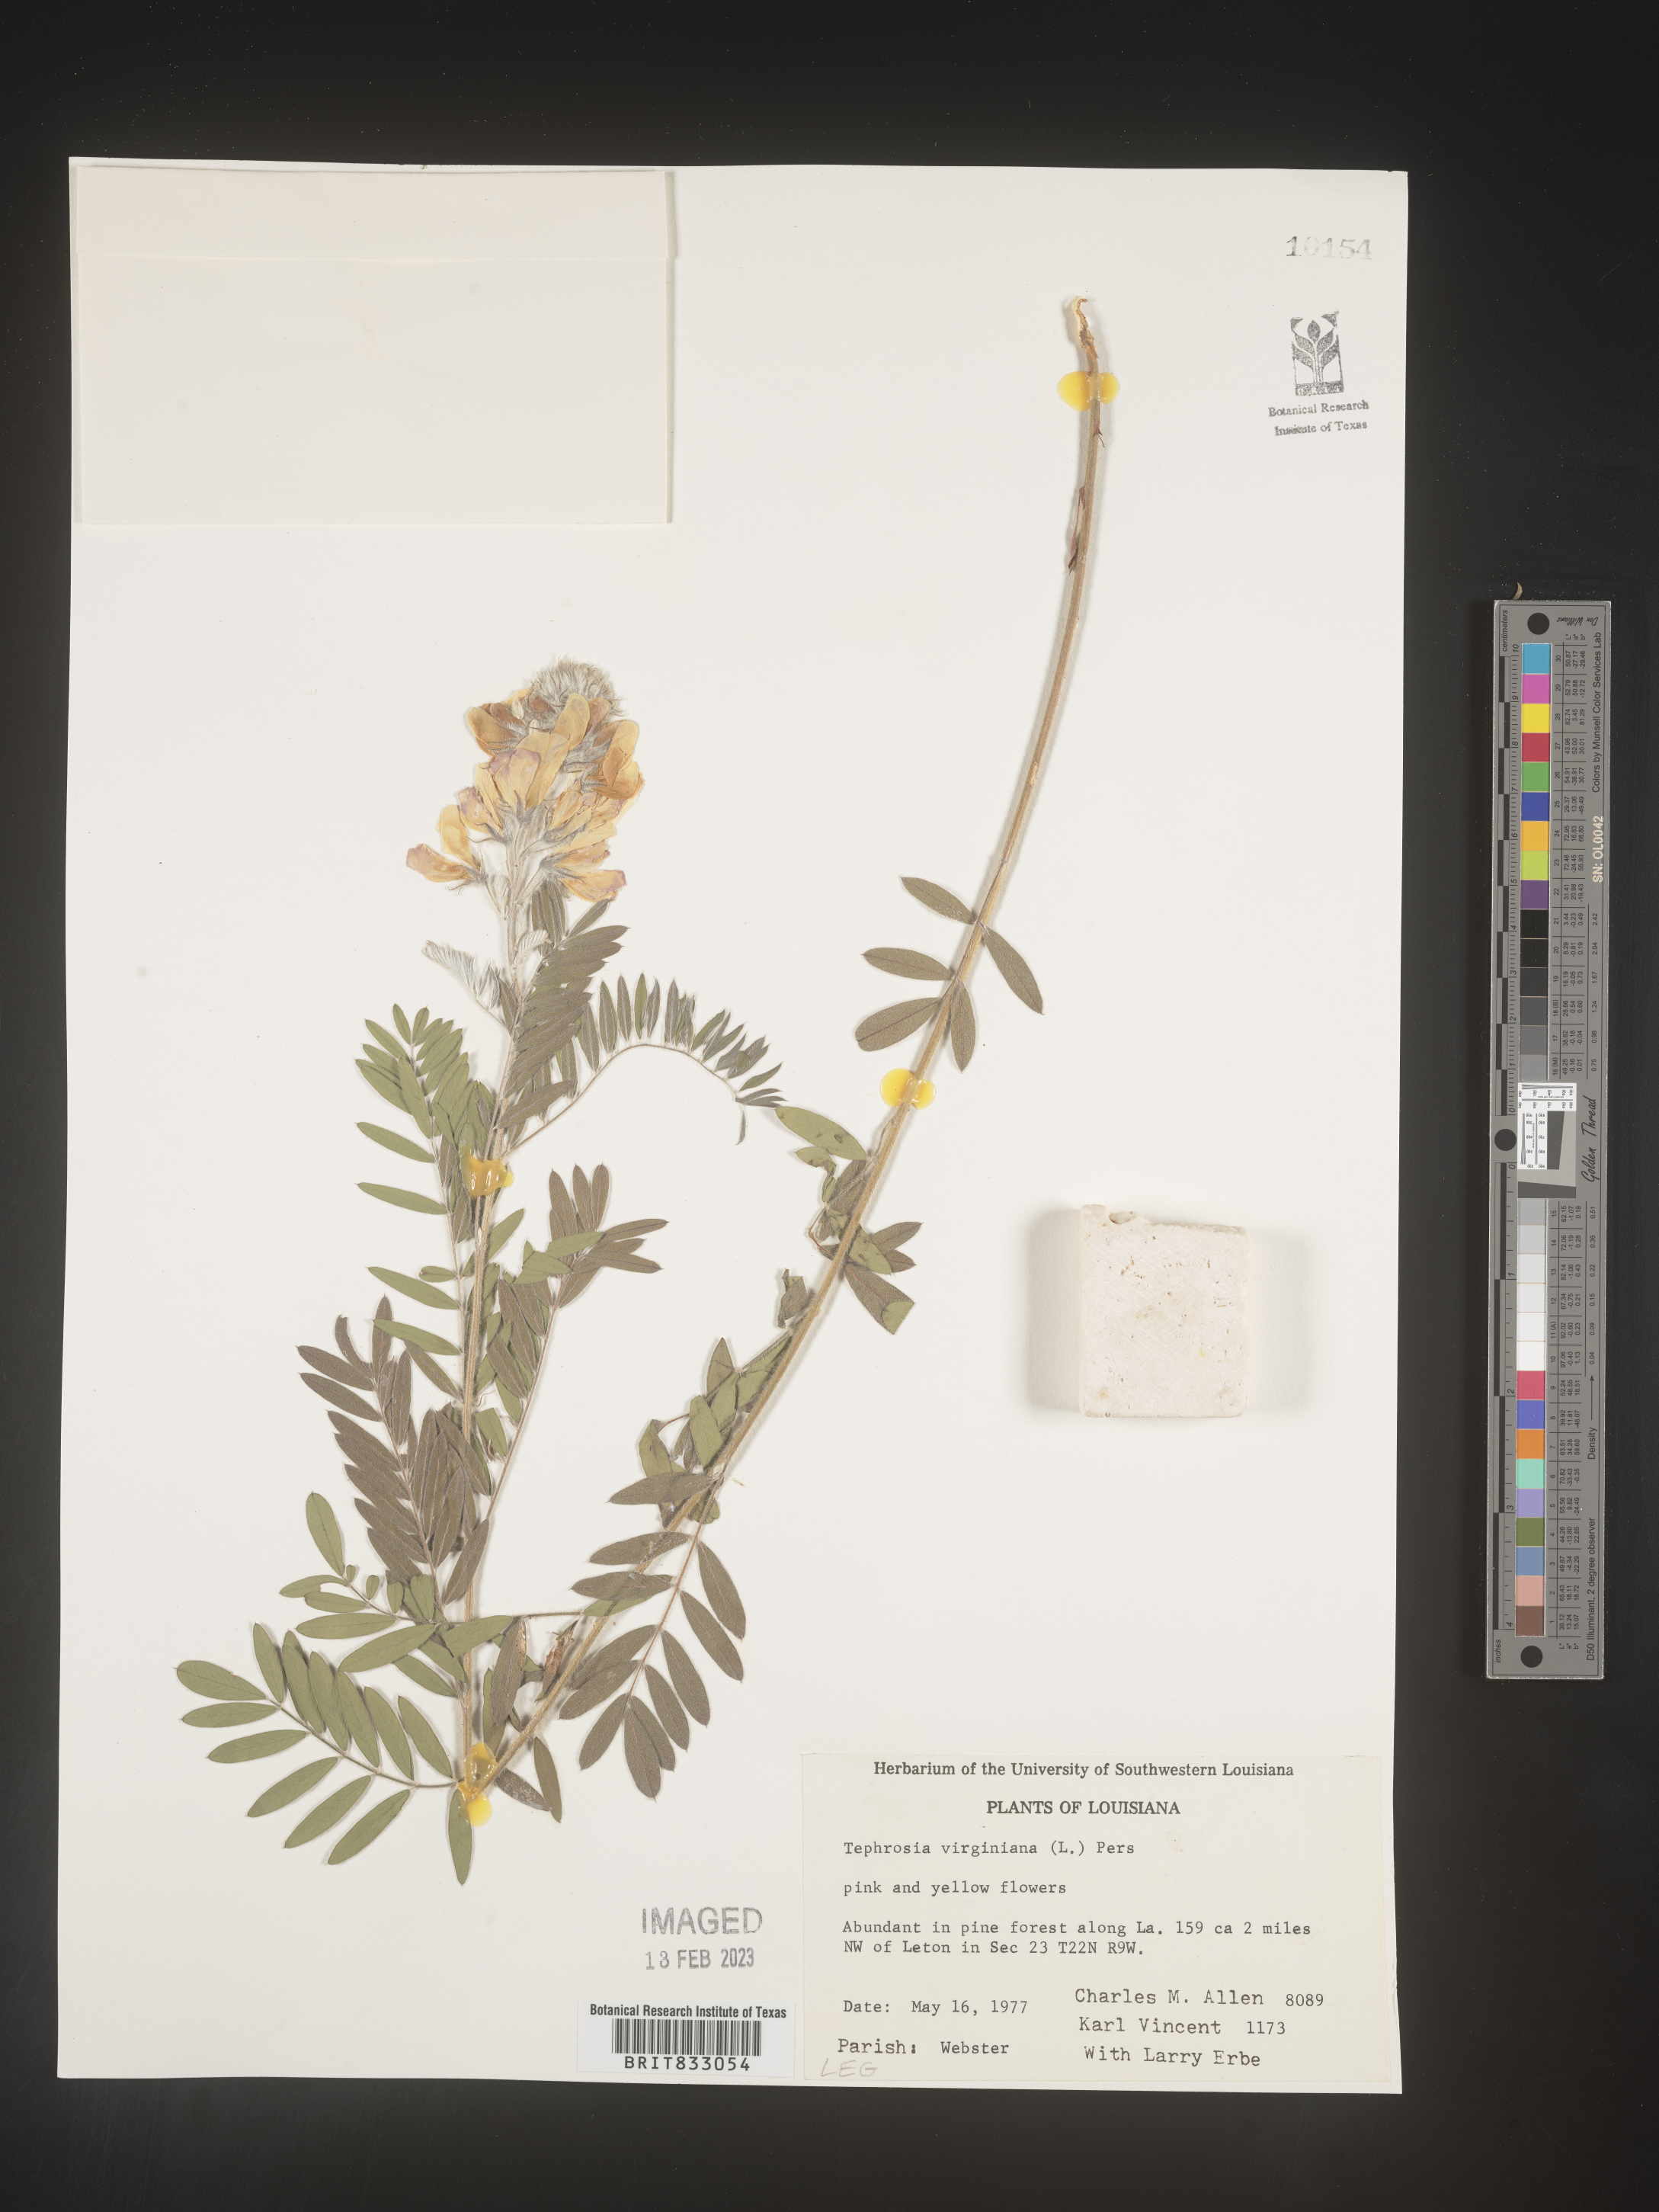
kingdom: Plantae
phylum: Tracheophyta
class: Magnoliopsida
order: Fabales
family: Fabaceae
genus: Tephrosia
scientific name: Tephrosia virginiana
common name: Rabbit-pea
